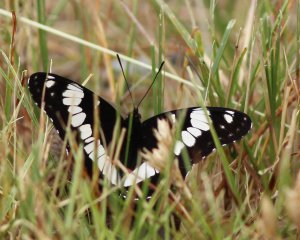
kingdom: Animalia
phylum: Arthropoda
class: Insecta
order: Lepidoptera
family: Nymphalidae
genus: Limenitis
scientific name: Limenitis weidemeyerii
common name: Weidemeyer's Admiral
